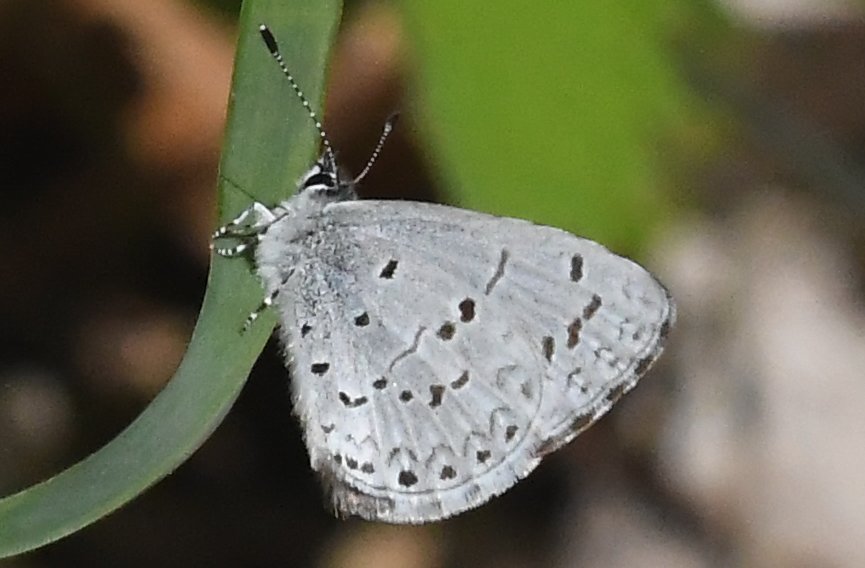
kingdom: Animalia
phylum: Arthropoda
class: Insecta
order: Lepidoptera
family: Lycaenidae
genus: Celastrina
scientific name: Celastrina
